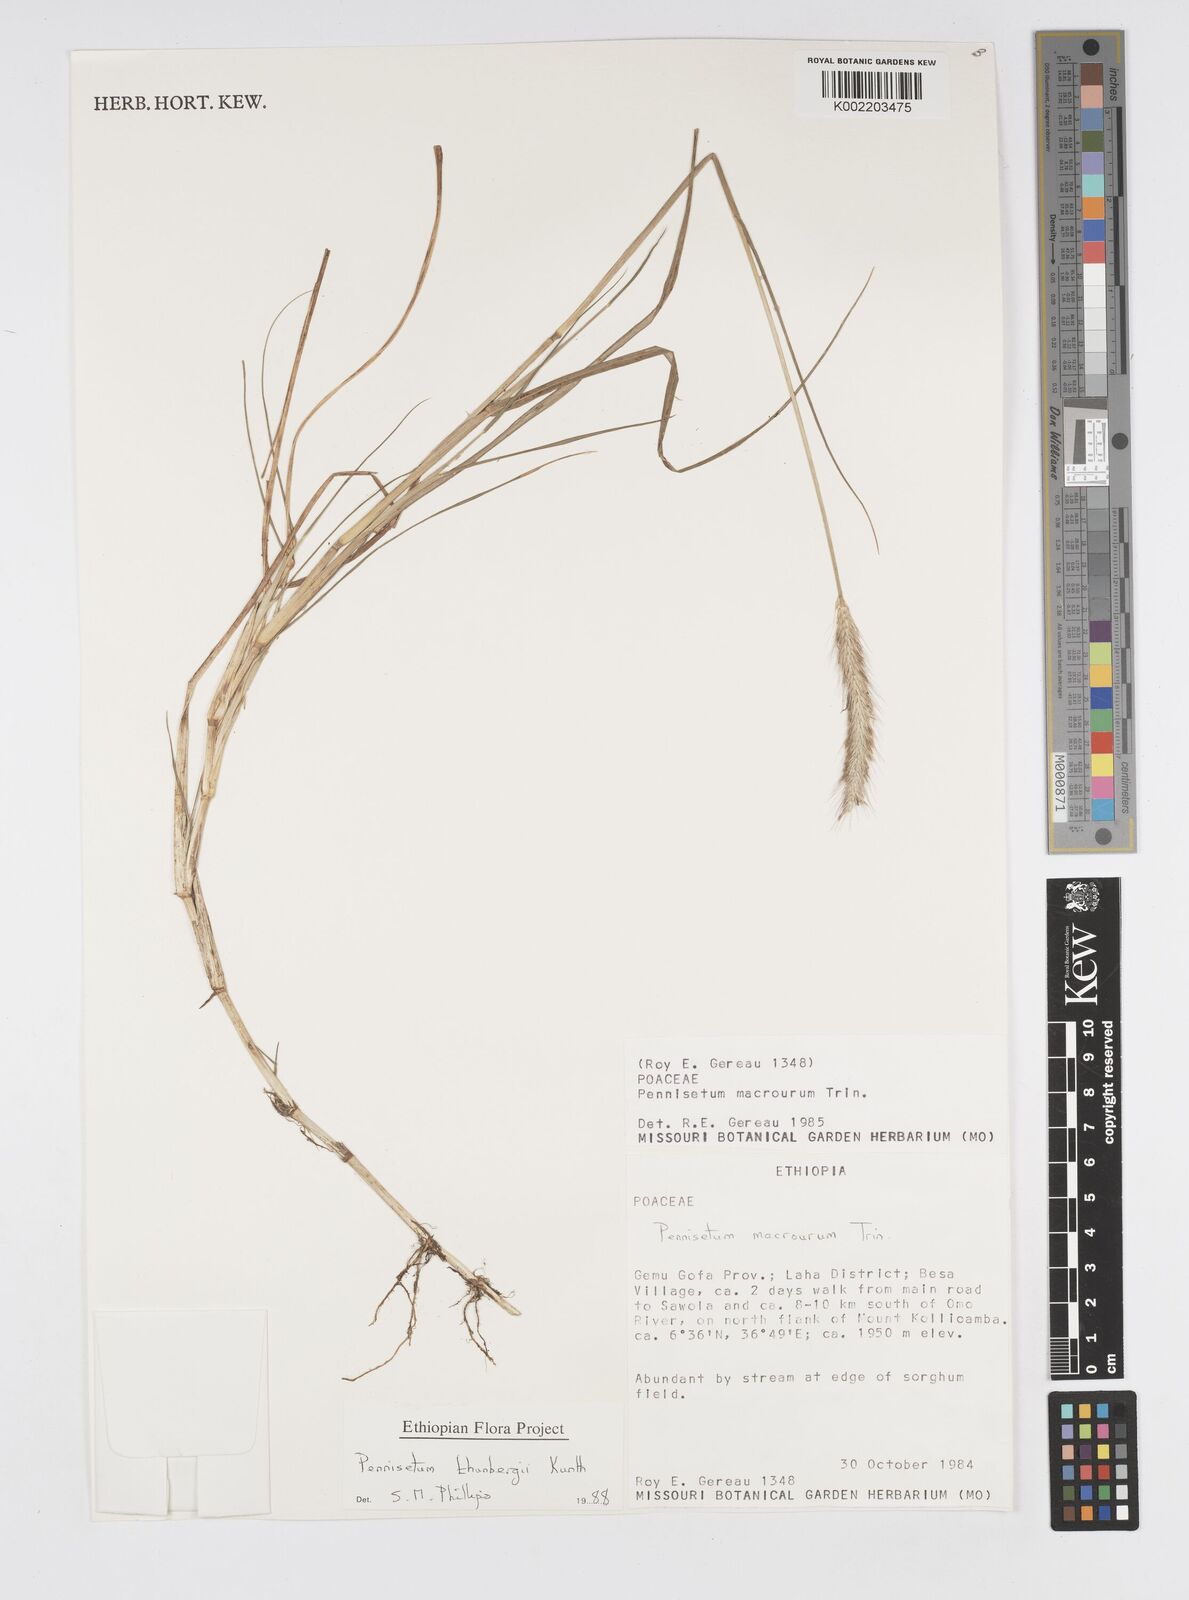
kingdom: Plantae
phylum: Tracheophyta
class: Liliopsida
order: Poales
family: Poaceae
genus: Cenchrus
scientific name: Cenchrus geniculatus
